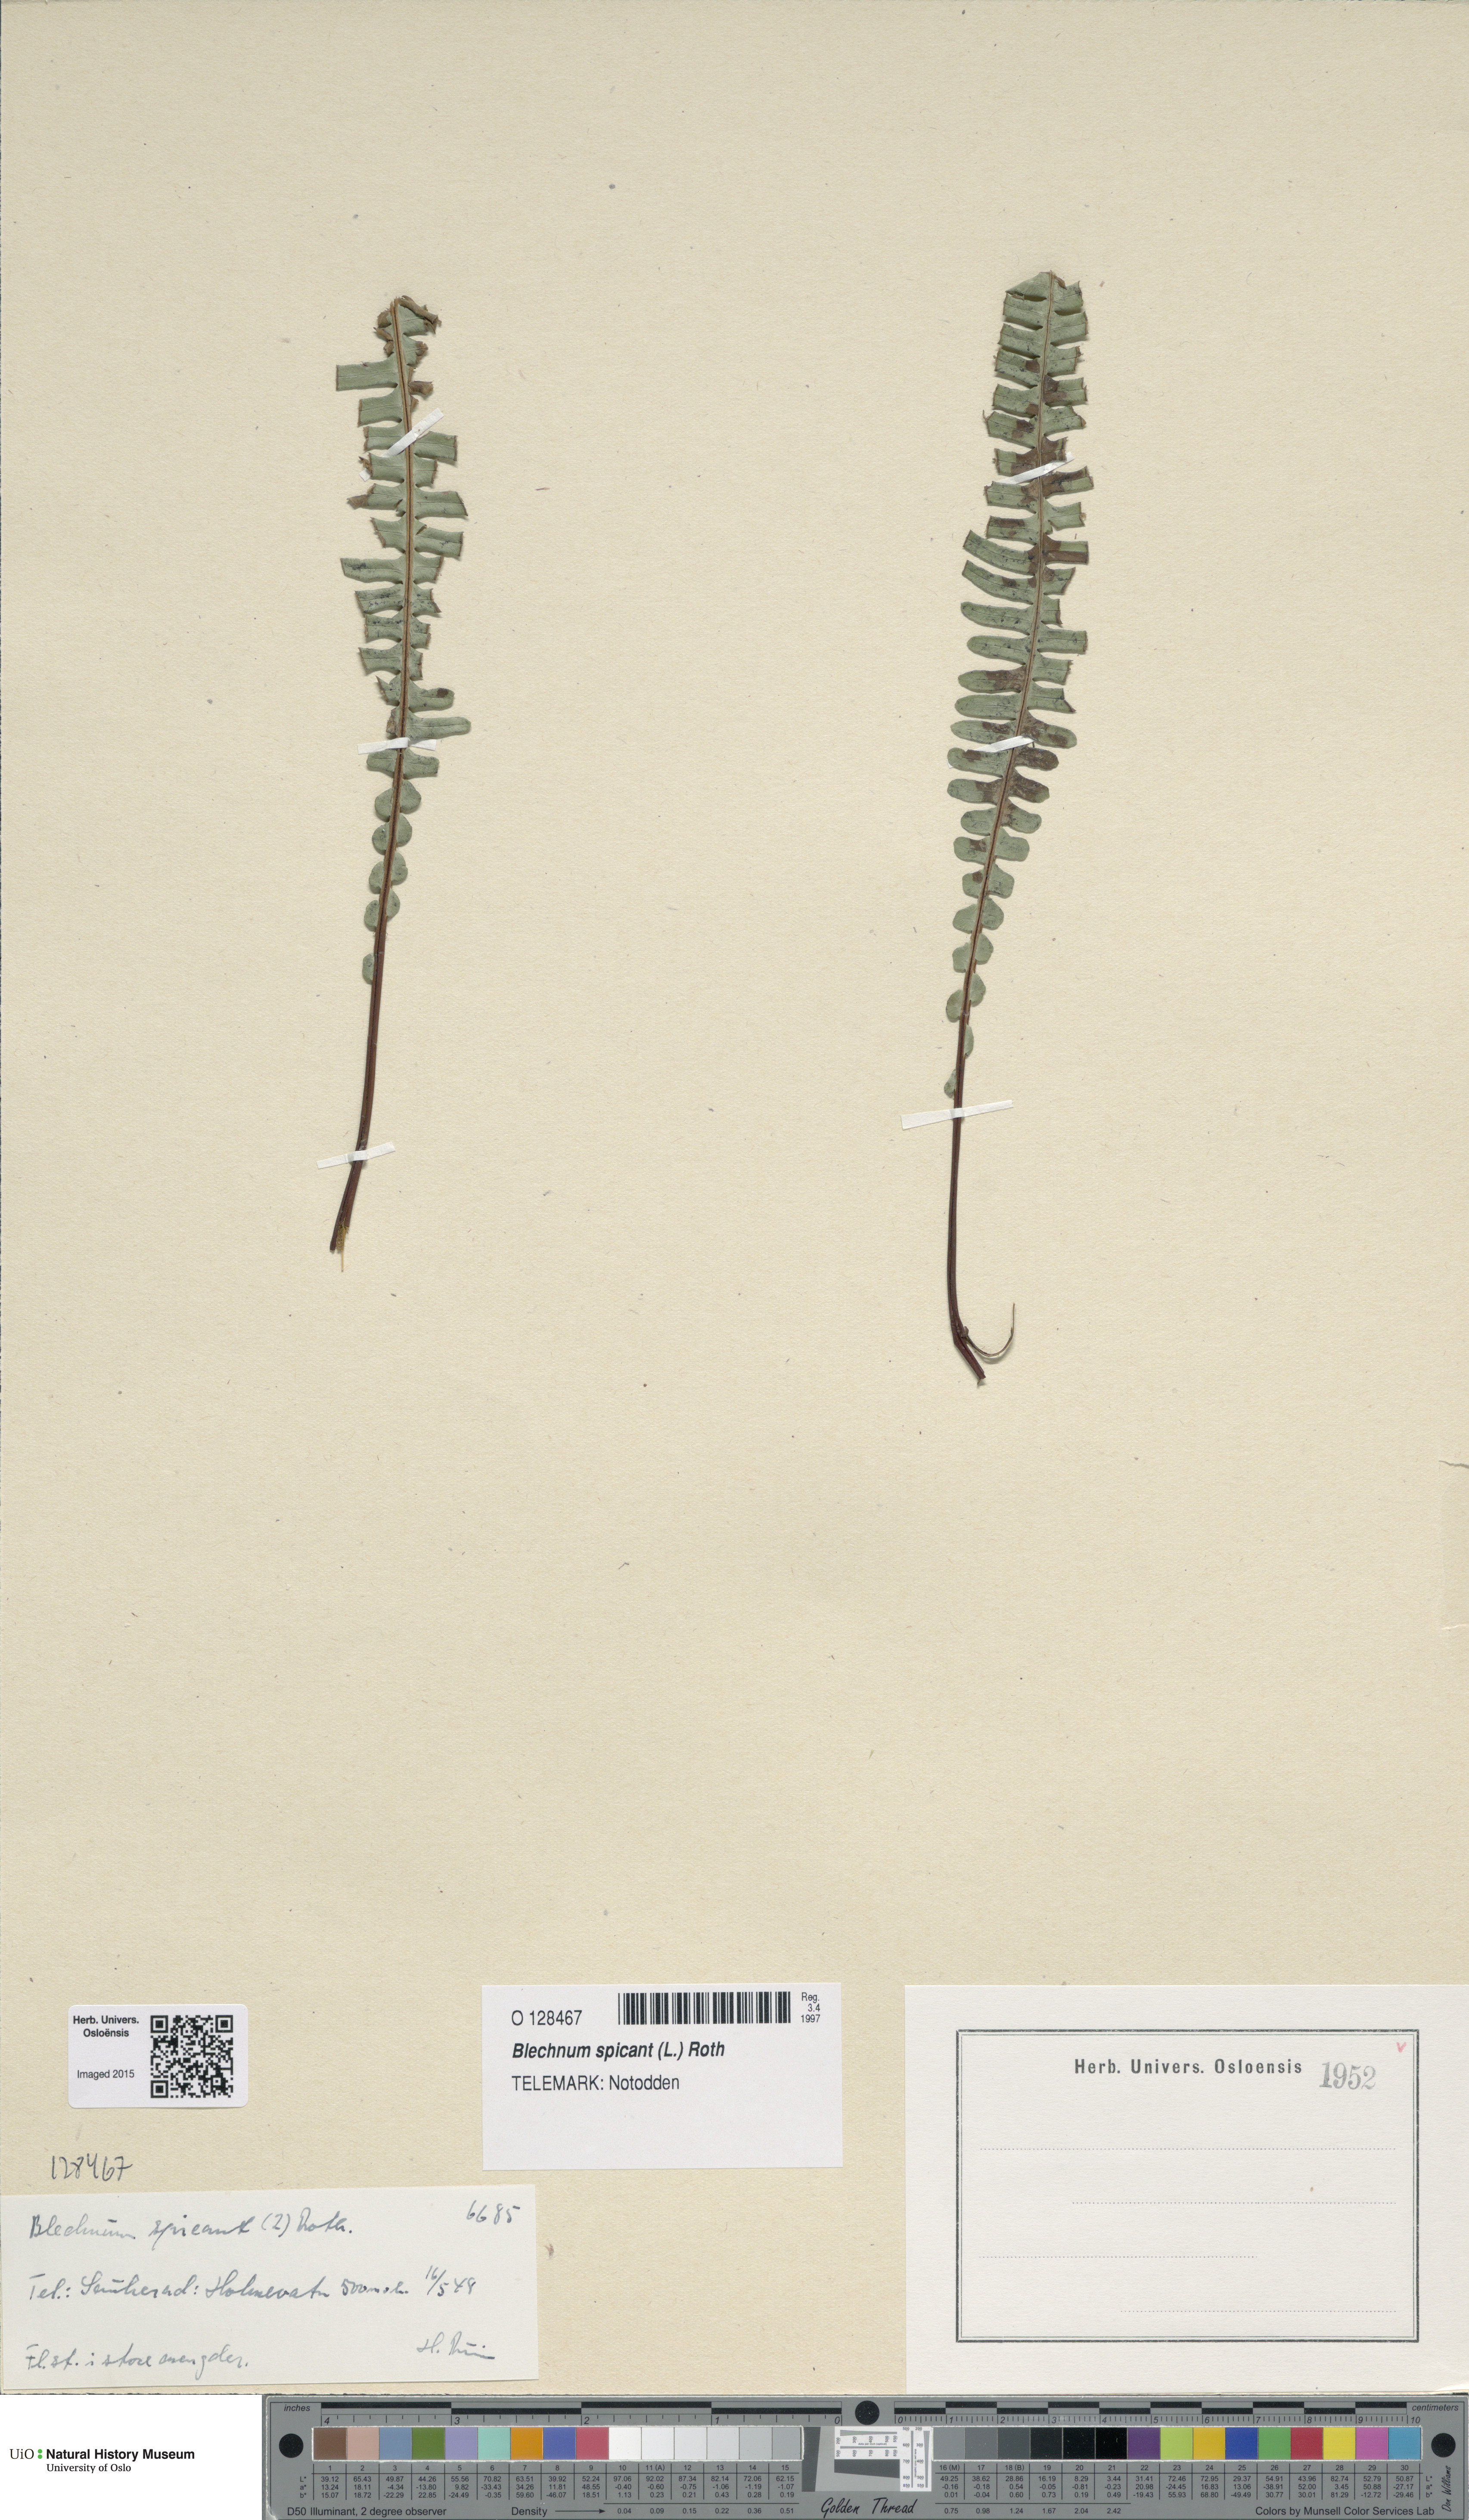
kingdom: Plantae
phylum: Tracheophyta
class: Polypodiopsida
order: Polypodiales
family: Blechnaceae
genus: Struthiopteris
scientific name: Struthiopteris spicant
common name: Deer fern
